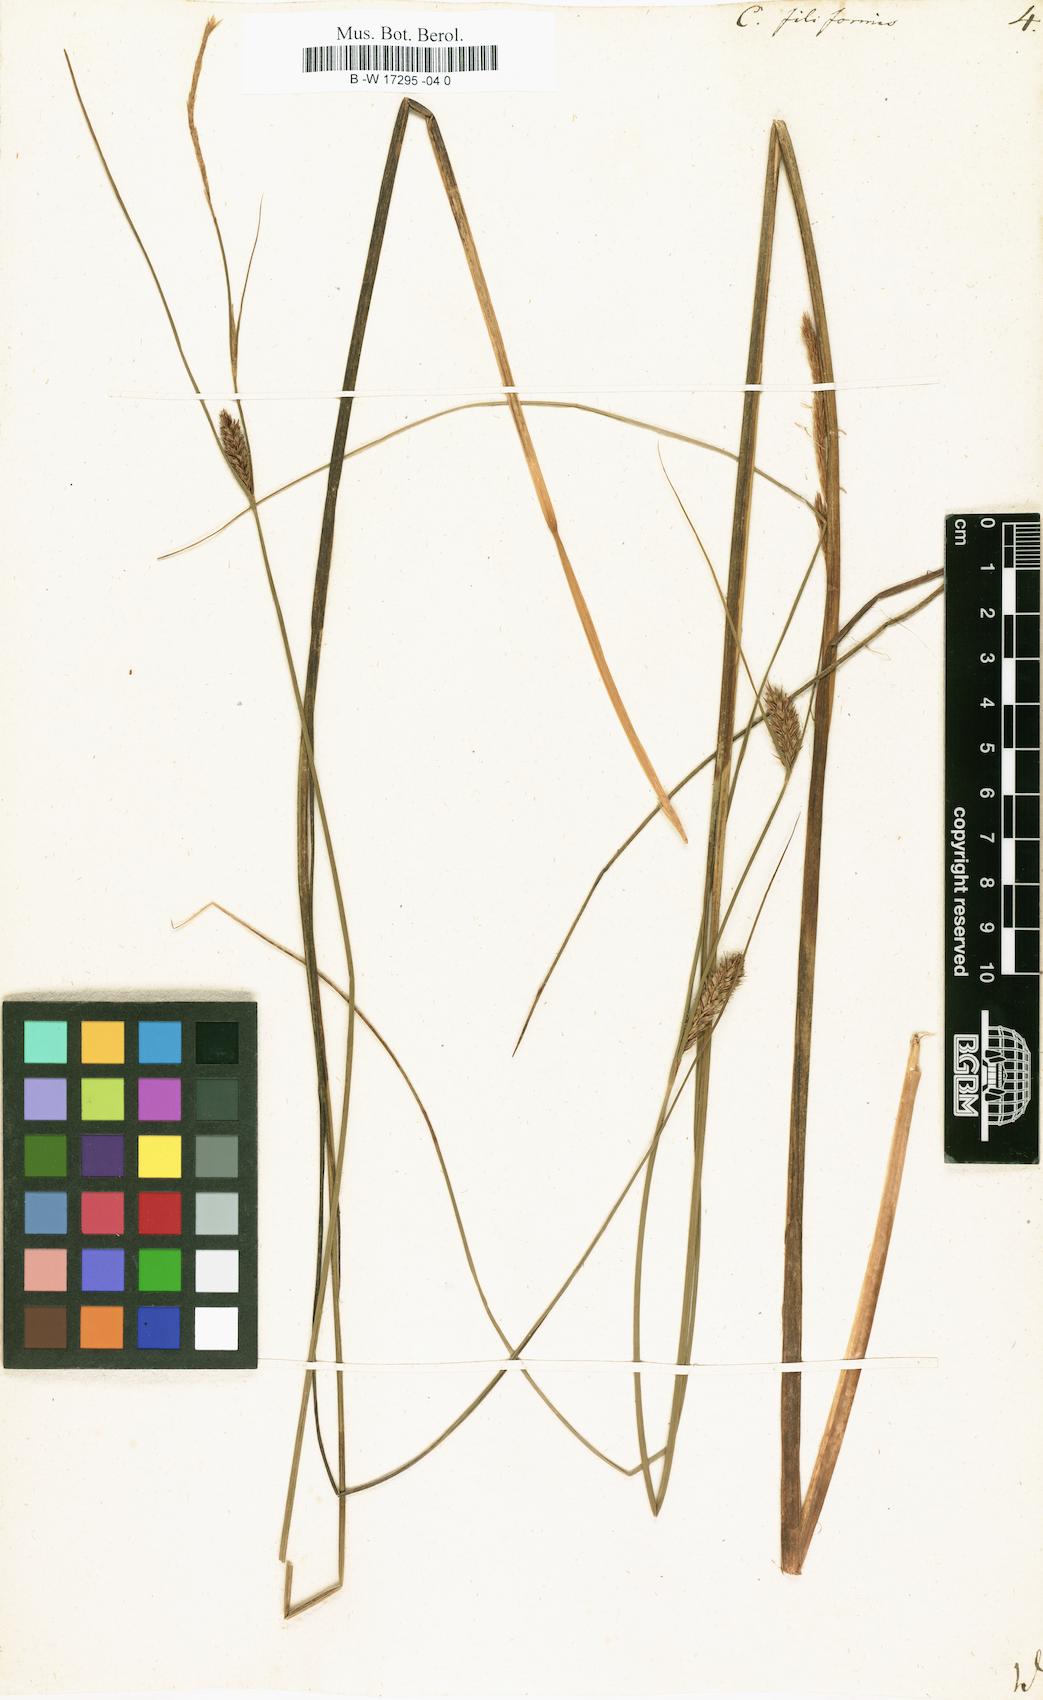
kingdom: Plantae
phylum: Tracheophyta
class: Liliopsida
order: Poales
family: Cyperaceae
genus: Carex
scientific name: Carex montana
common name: Soft-leaved sedge
